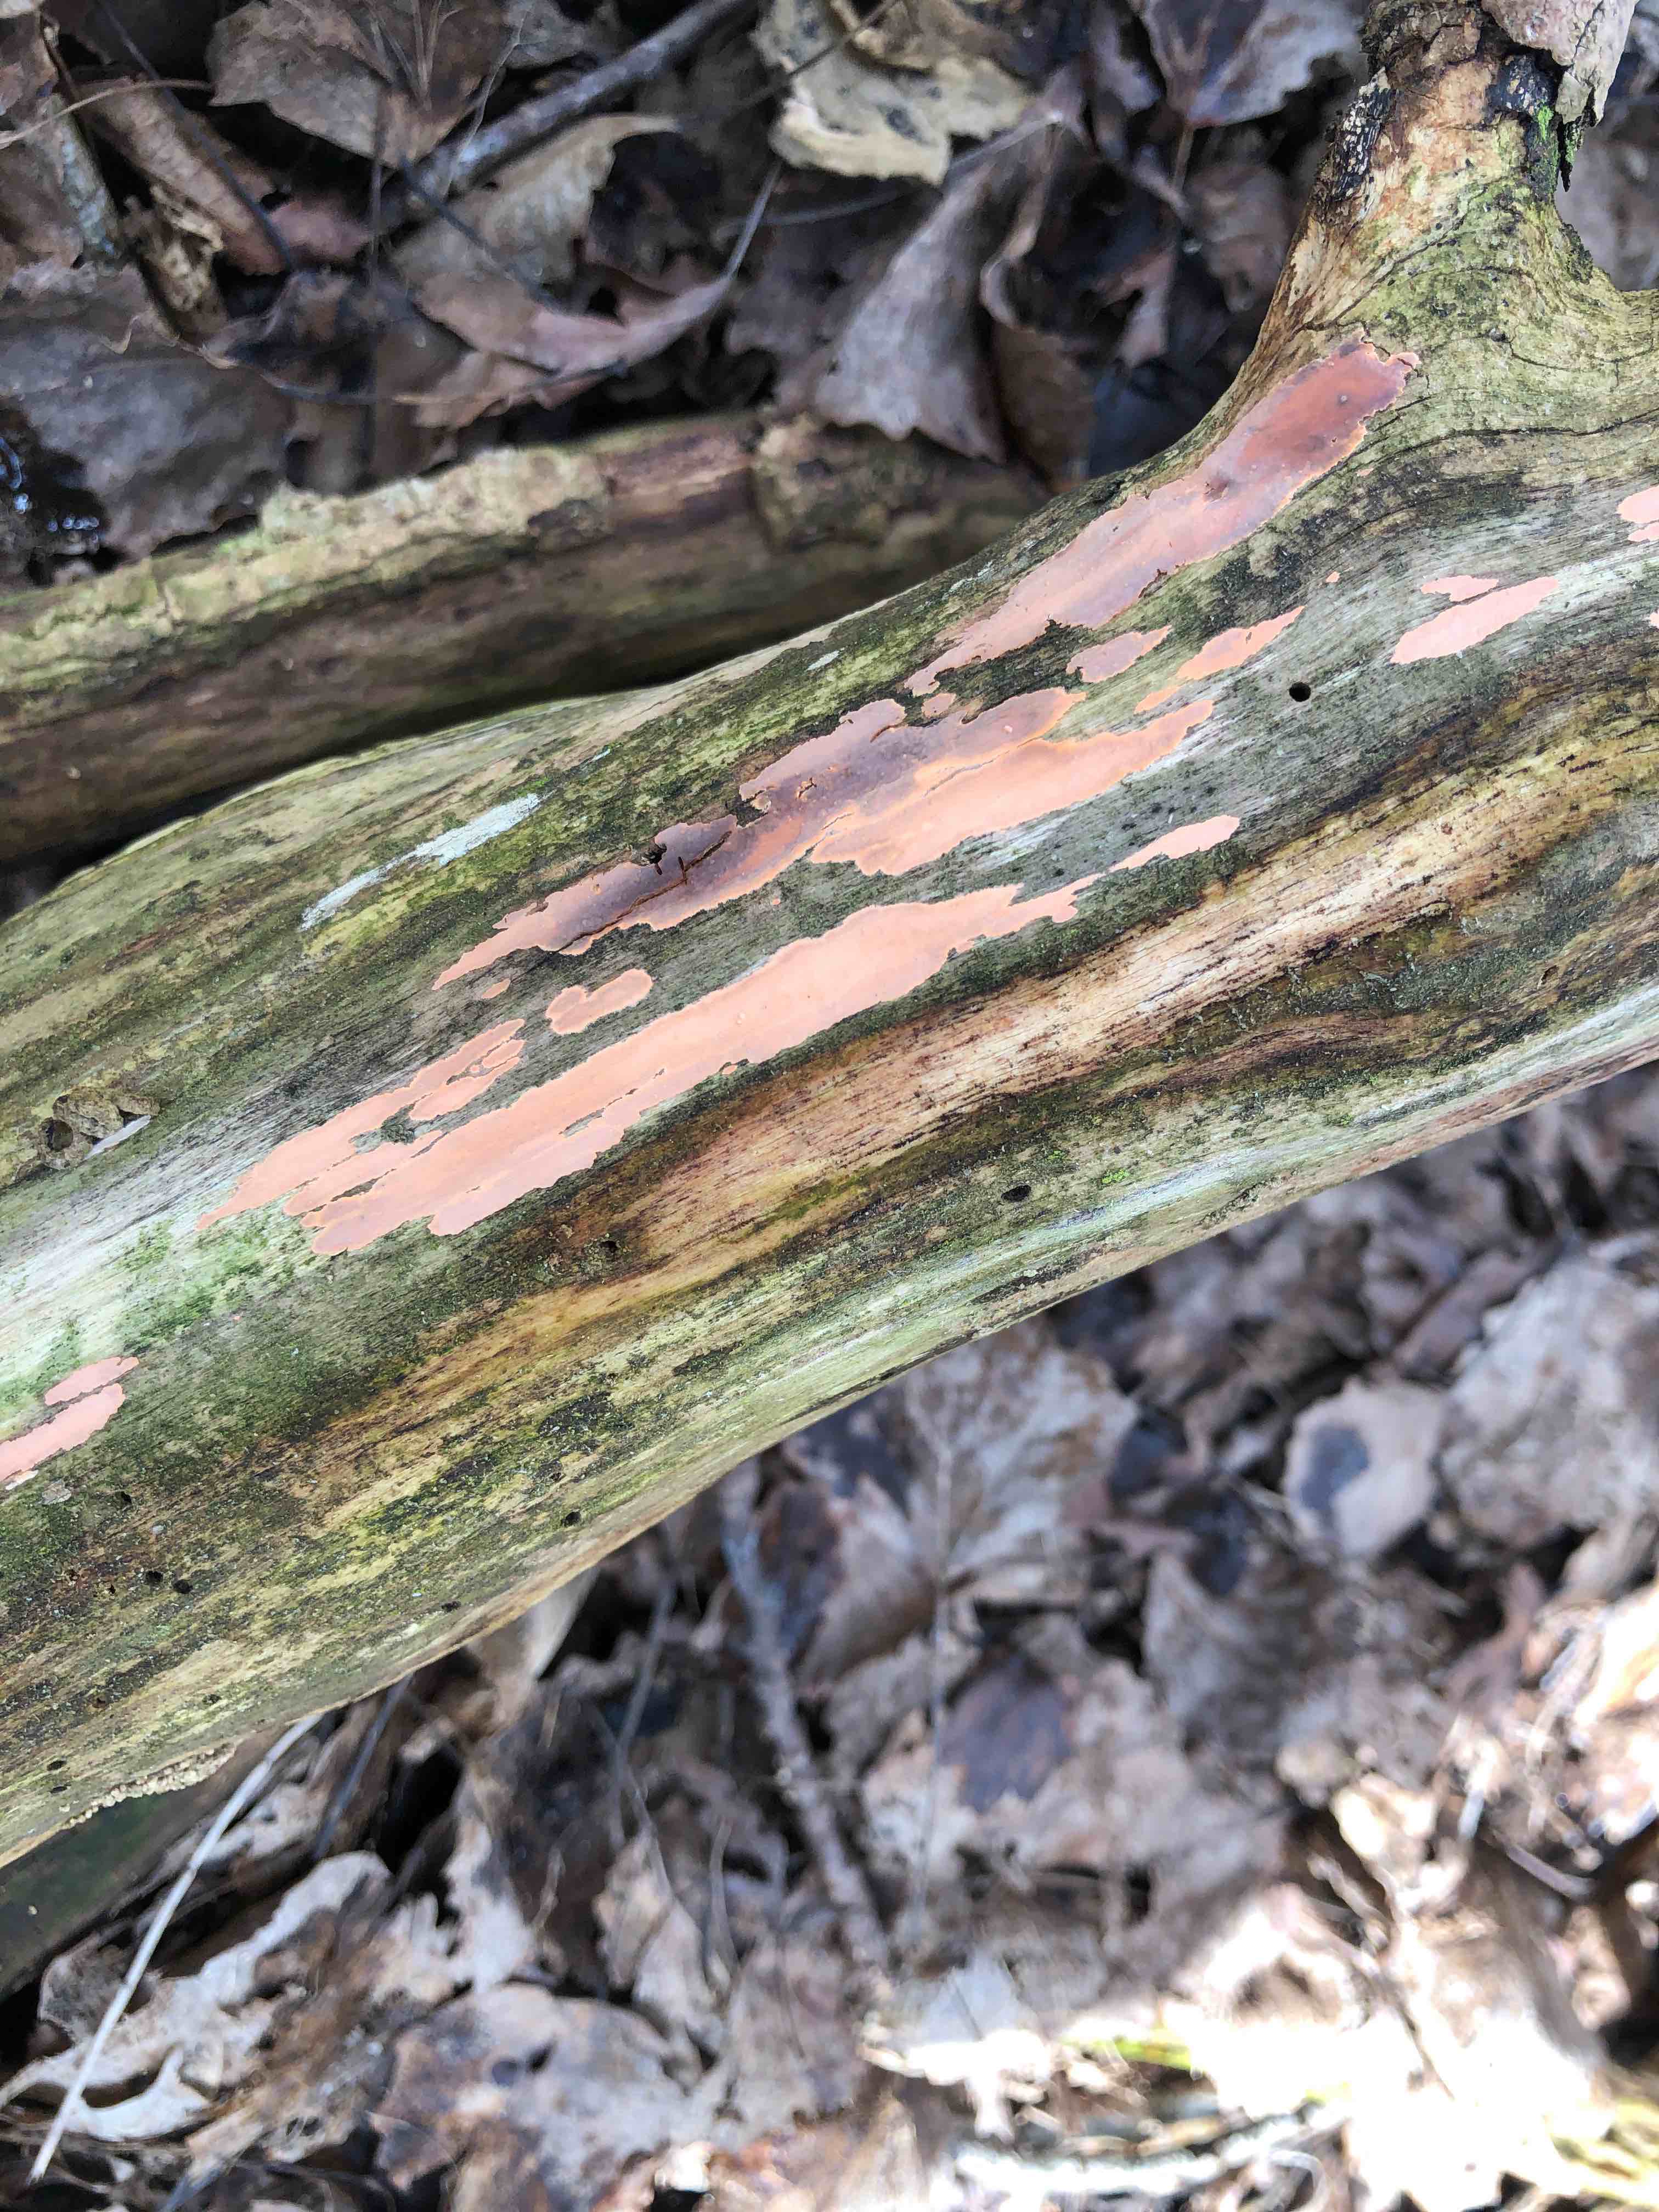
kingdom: Fungi
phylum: Basidiomycota
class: Agaricomycetes
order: Russulales
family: Peniophoraceae
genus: Peniophora
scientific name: Peniophora incarnata
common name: laksefarvet voksskind
